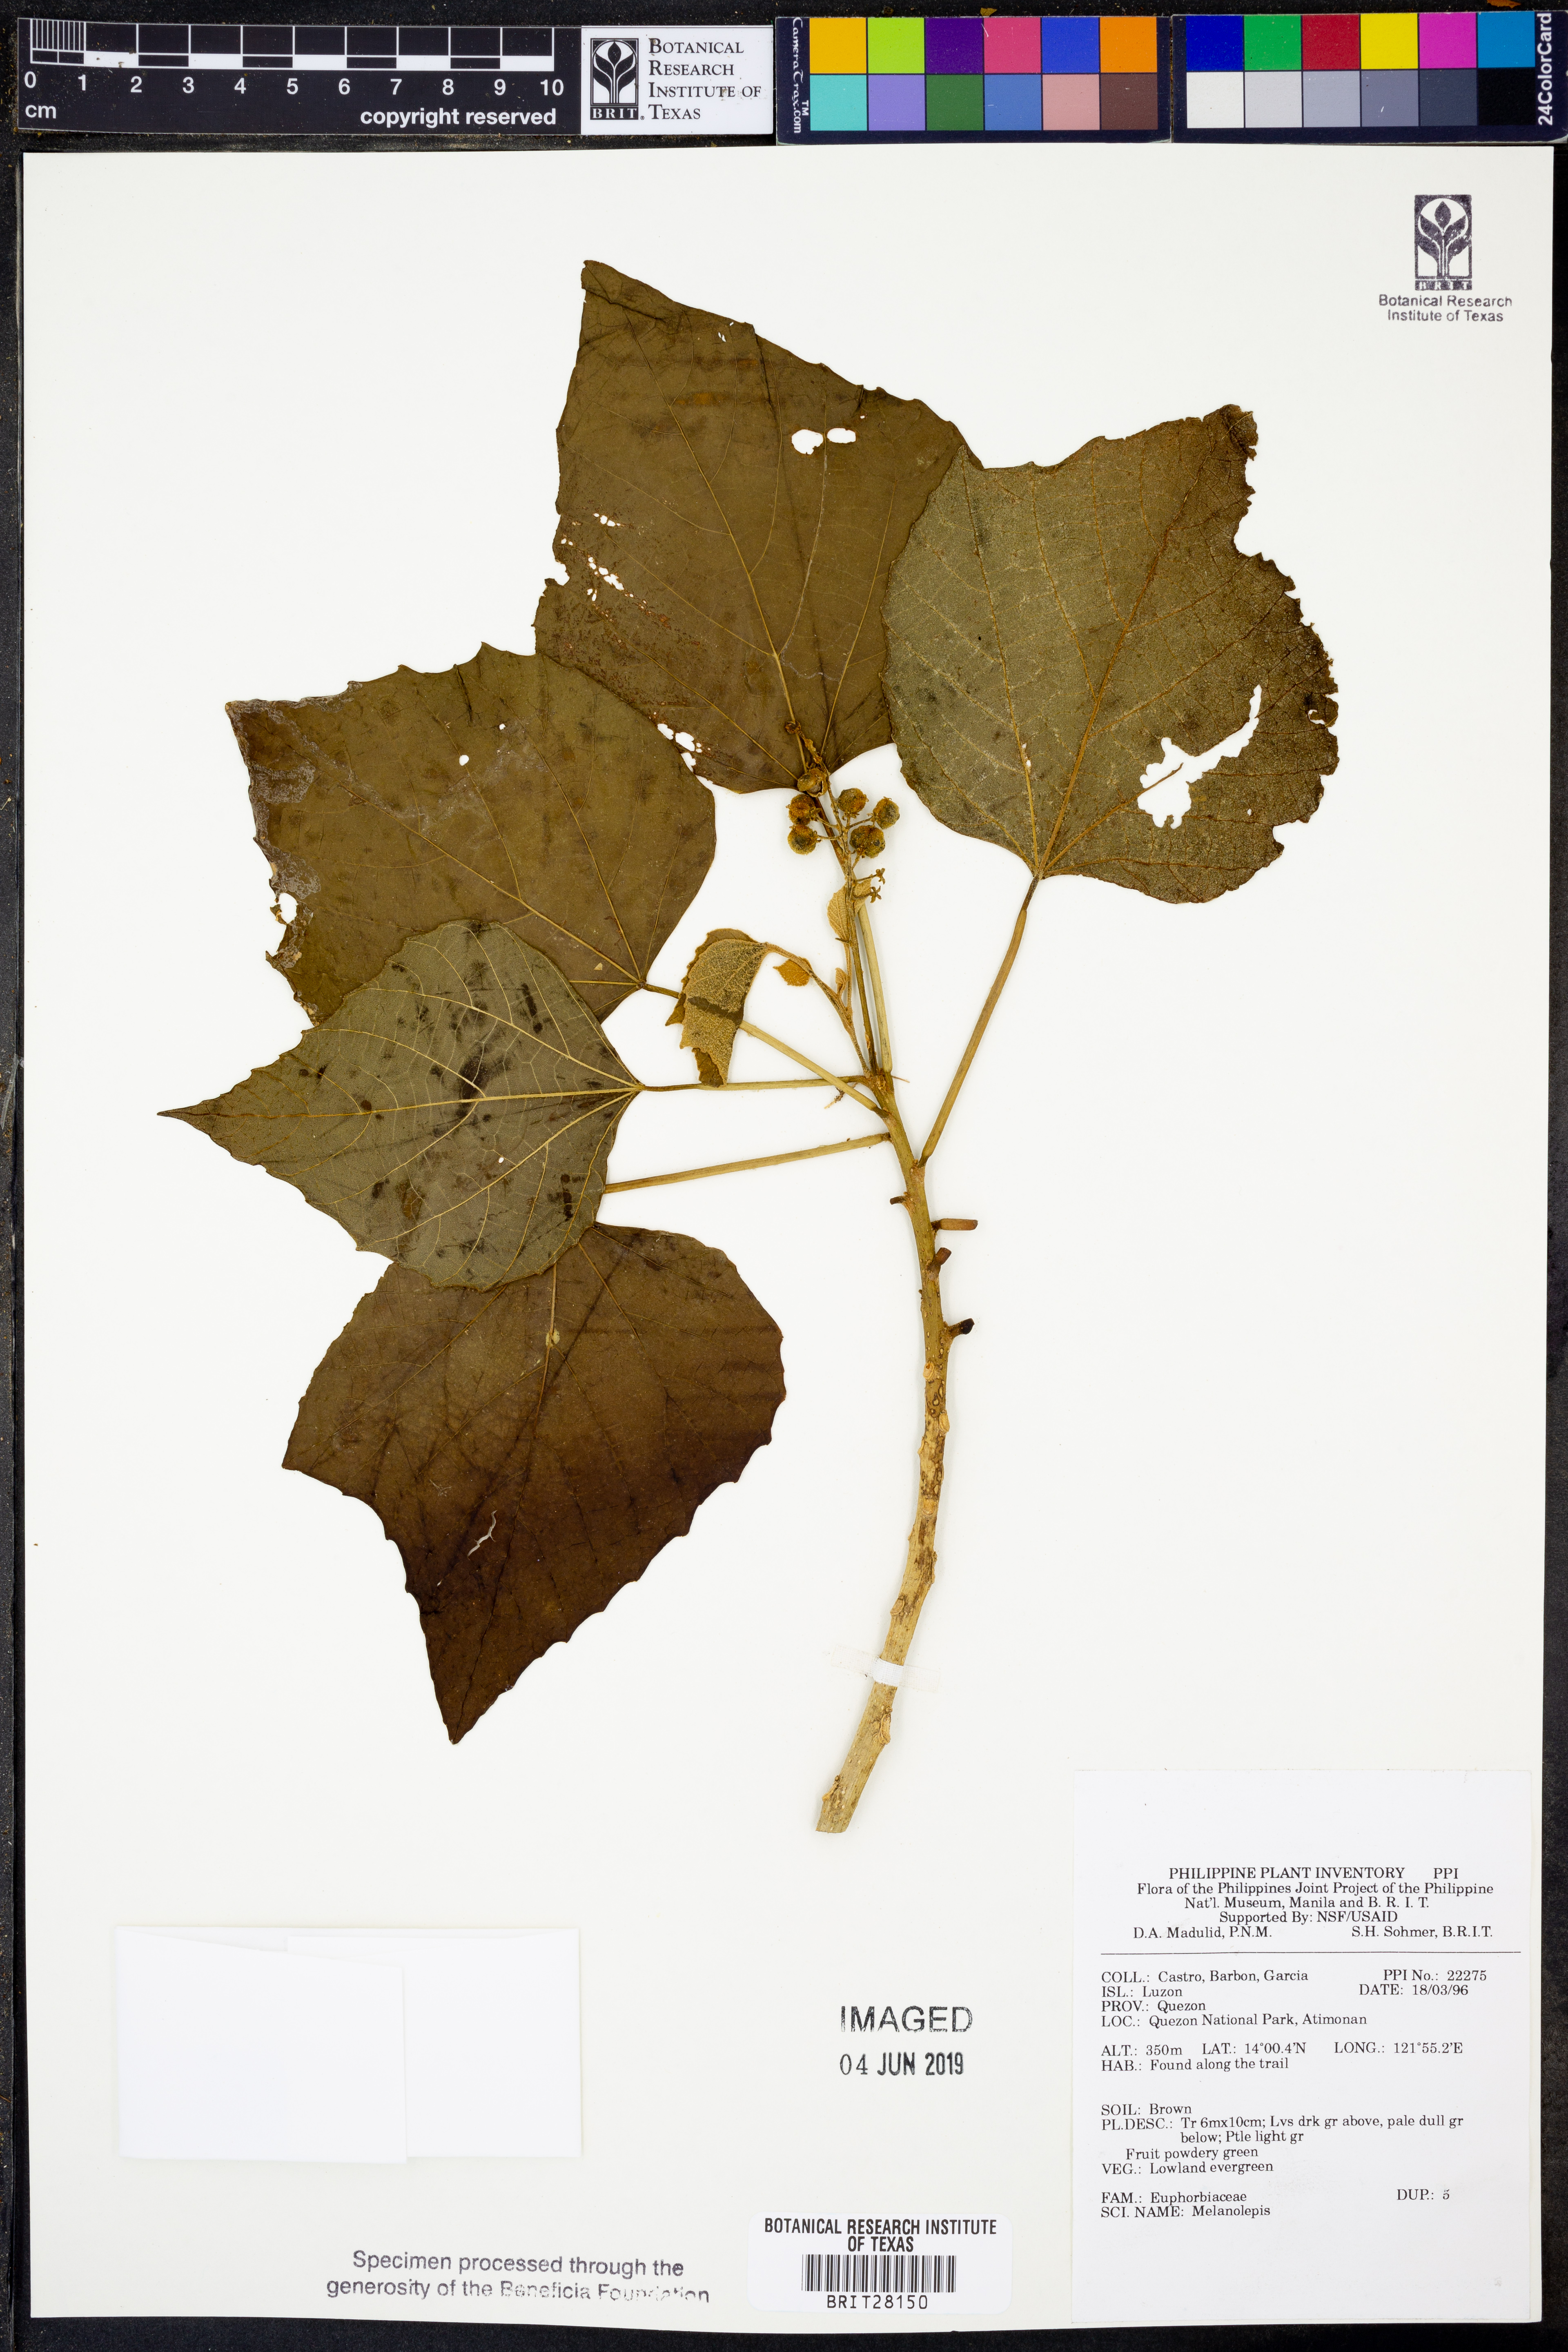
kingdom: Plantae
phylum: Tracheophyta
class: Magnoliopsida
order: Malpighiales
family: Euphorbiaceae
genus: Melanolepis
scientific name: Melanolepis
